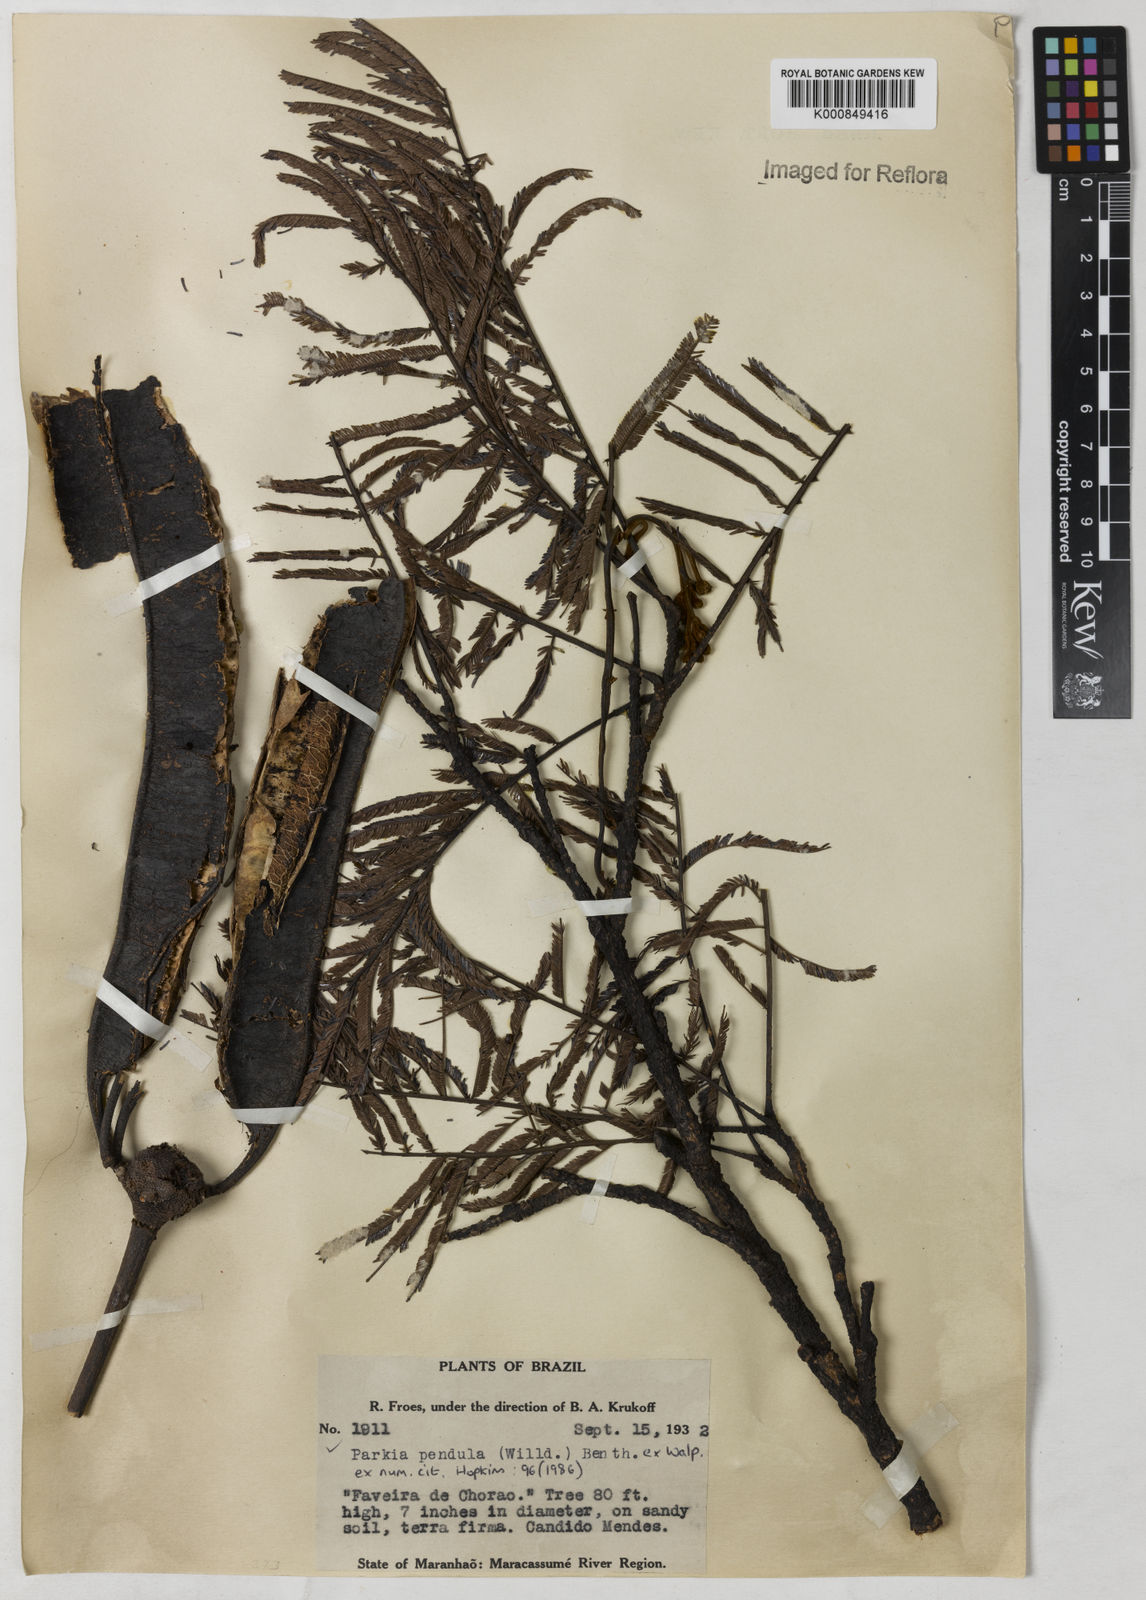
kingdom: Plantae
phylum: Tracheophyta
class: Magnoliopsida
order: Fabales
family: Fabaceae
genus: Parkia
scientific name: Parkia
